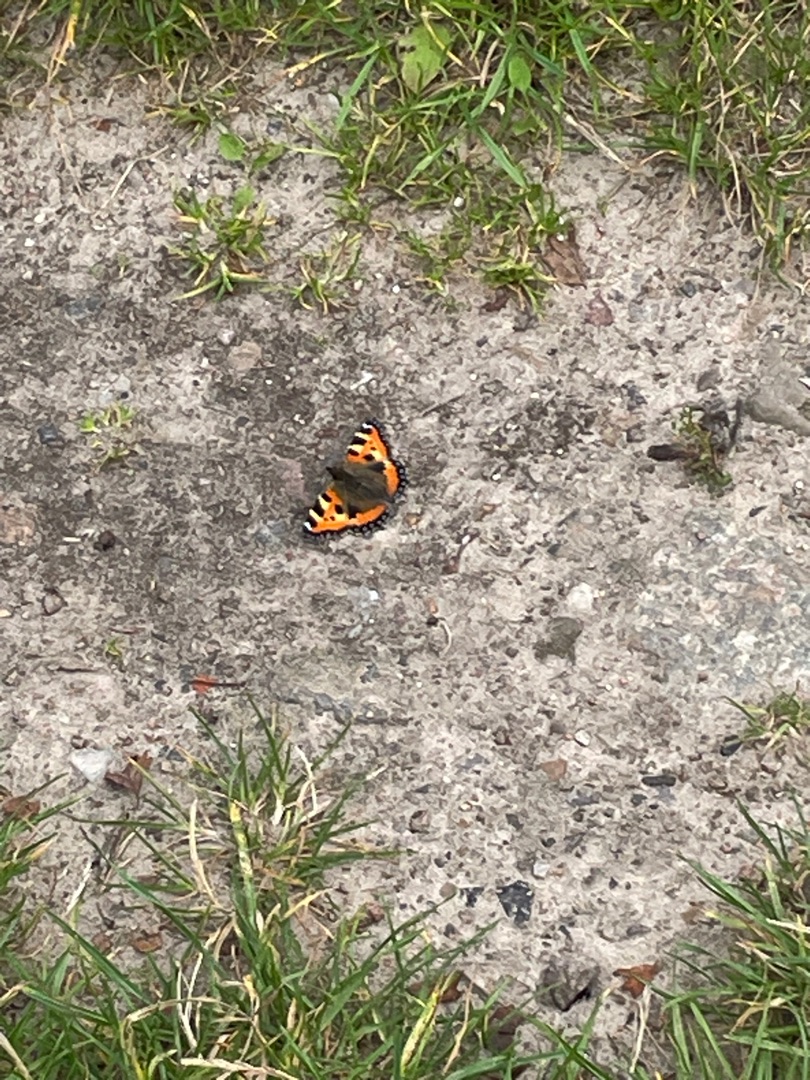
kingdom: Animalia
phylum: Arthropoda
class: Insecta
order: Lepidoptera
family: Nymphalidae
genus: Aglais
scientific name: Aglais urticae
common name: Nældens takvinge
